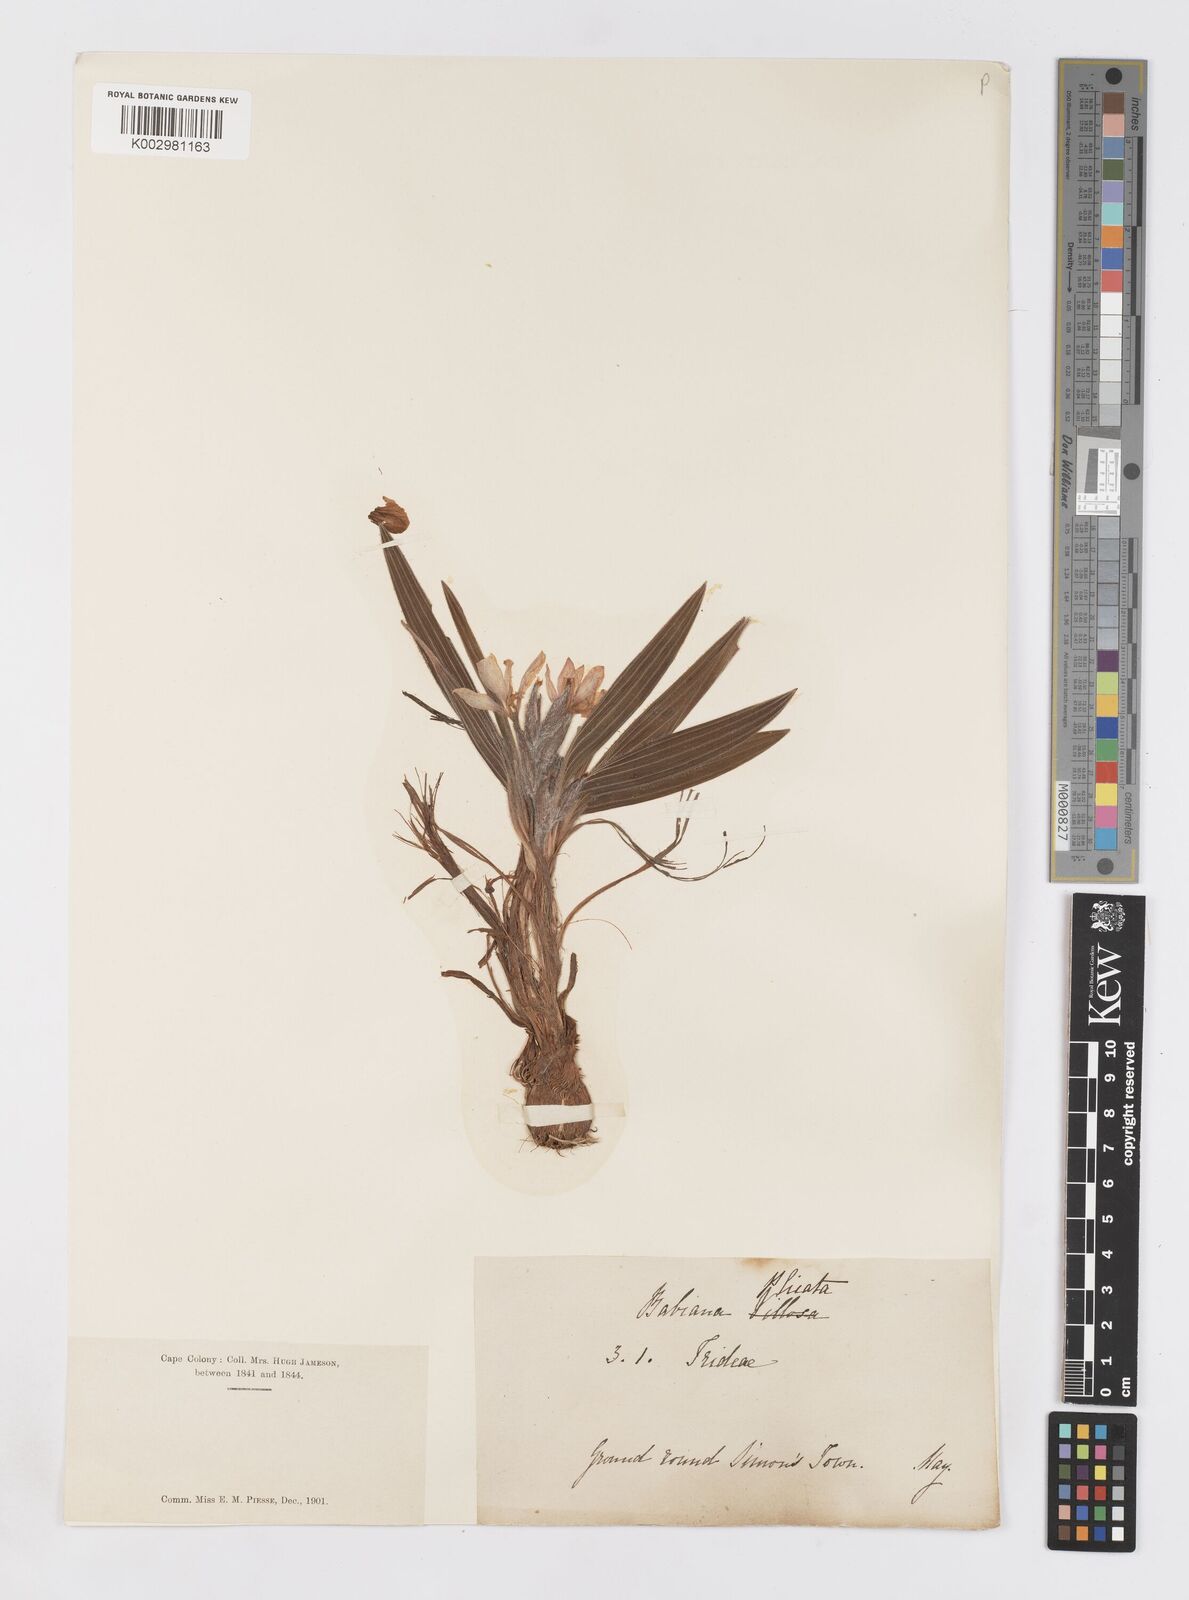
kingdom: Plantae
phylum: Tracheophyta
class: Liliopsida
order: Asparagales
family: Iridaceae
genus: Babiana
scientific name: Babiana
